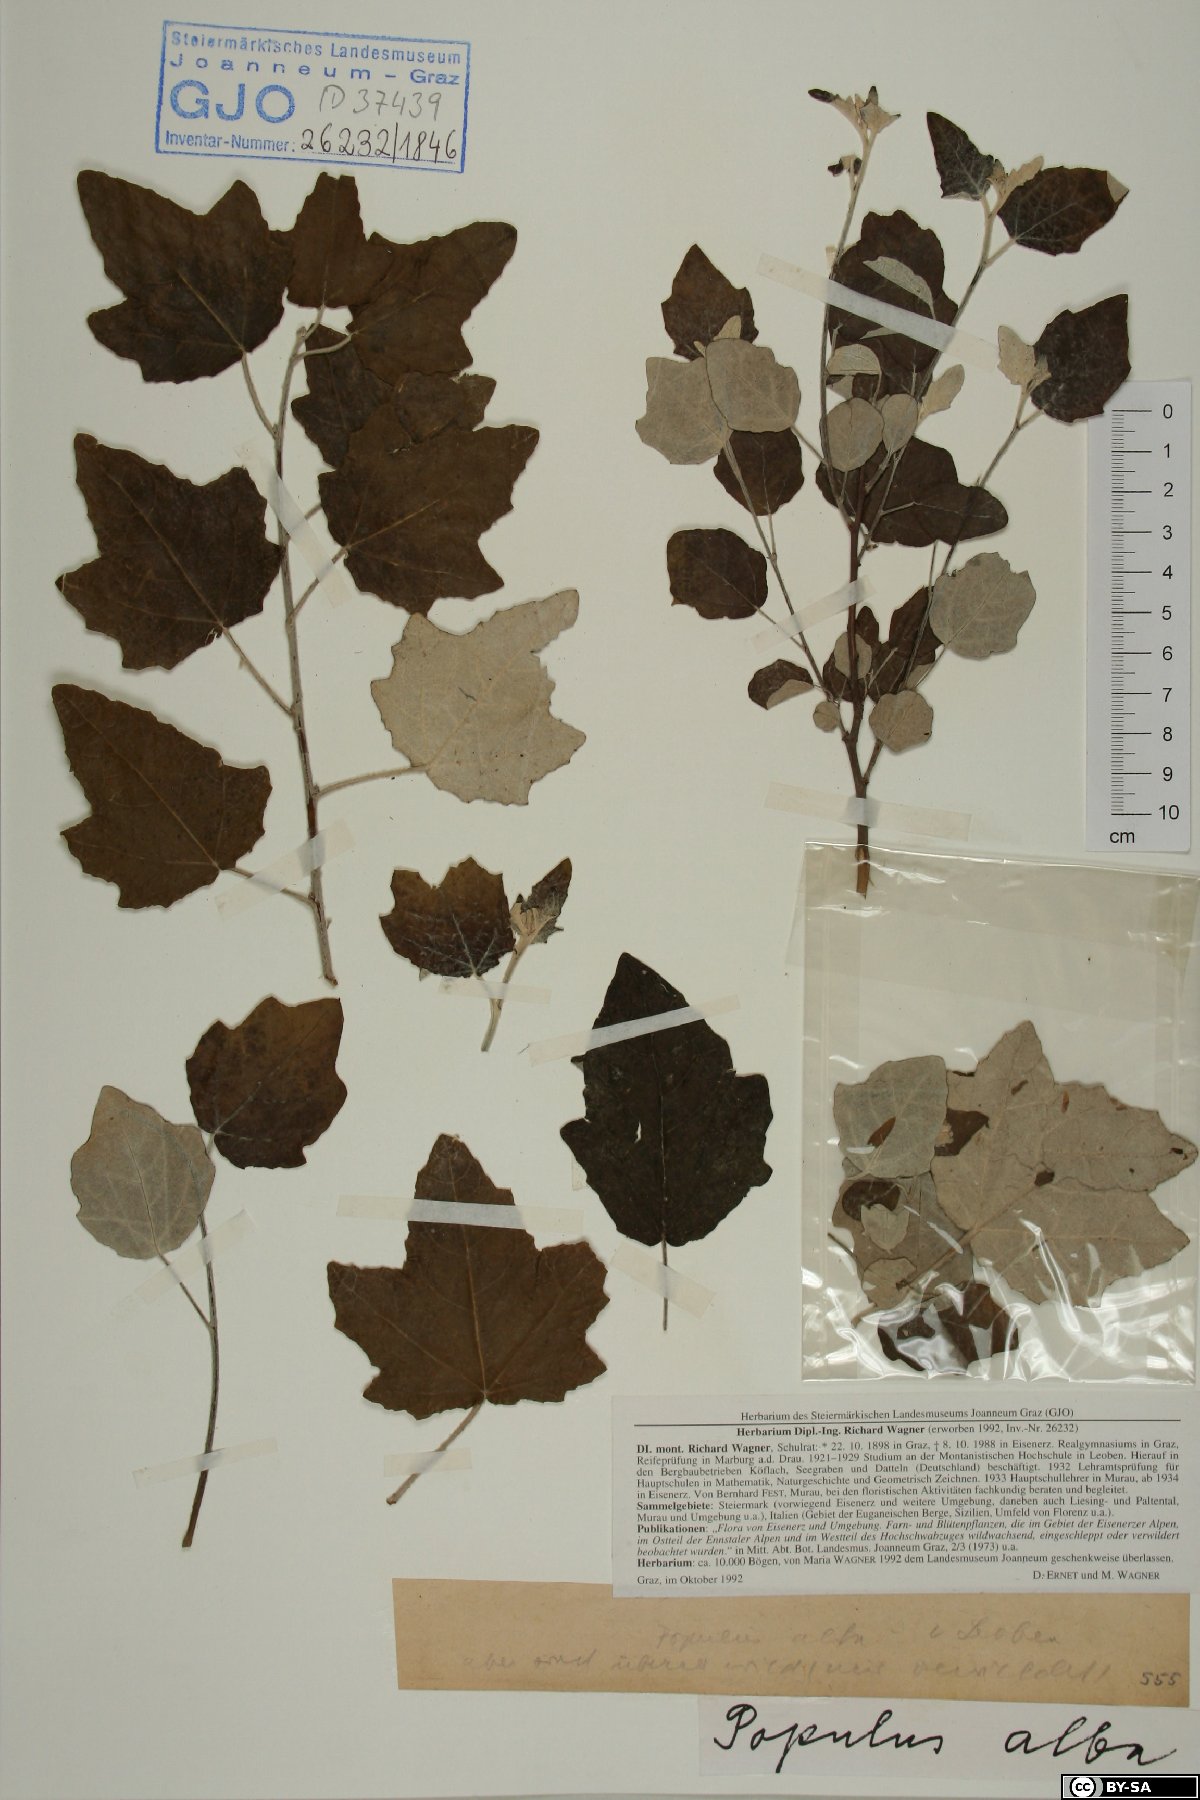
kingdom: Plantae
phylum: Tracheophyta
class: Magnoliopsida
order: Malpighiales
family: Salicaceae
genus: Populus
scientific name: Populus alba
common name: White poplar
